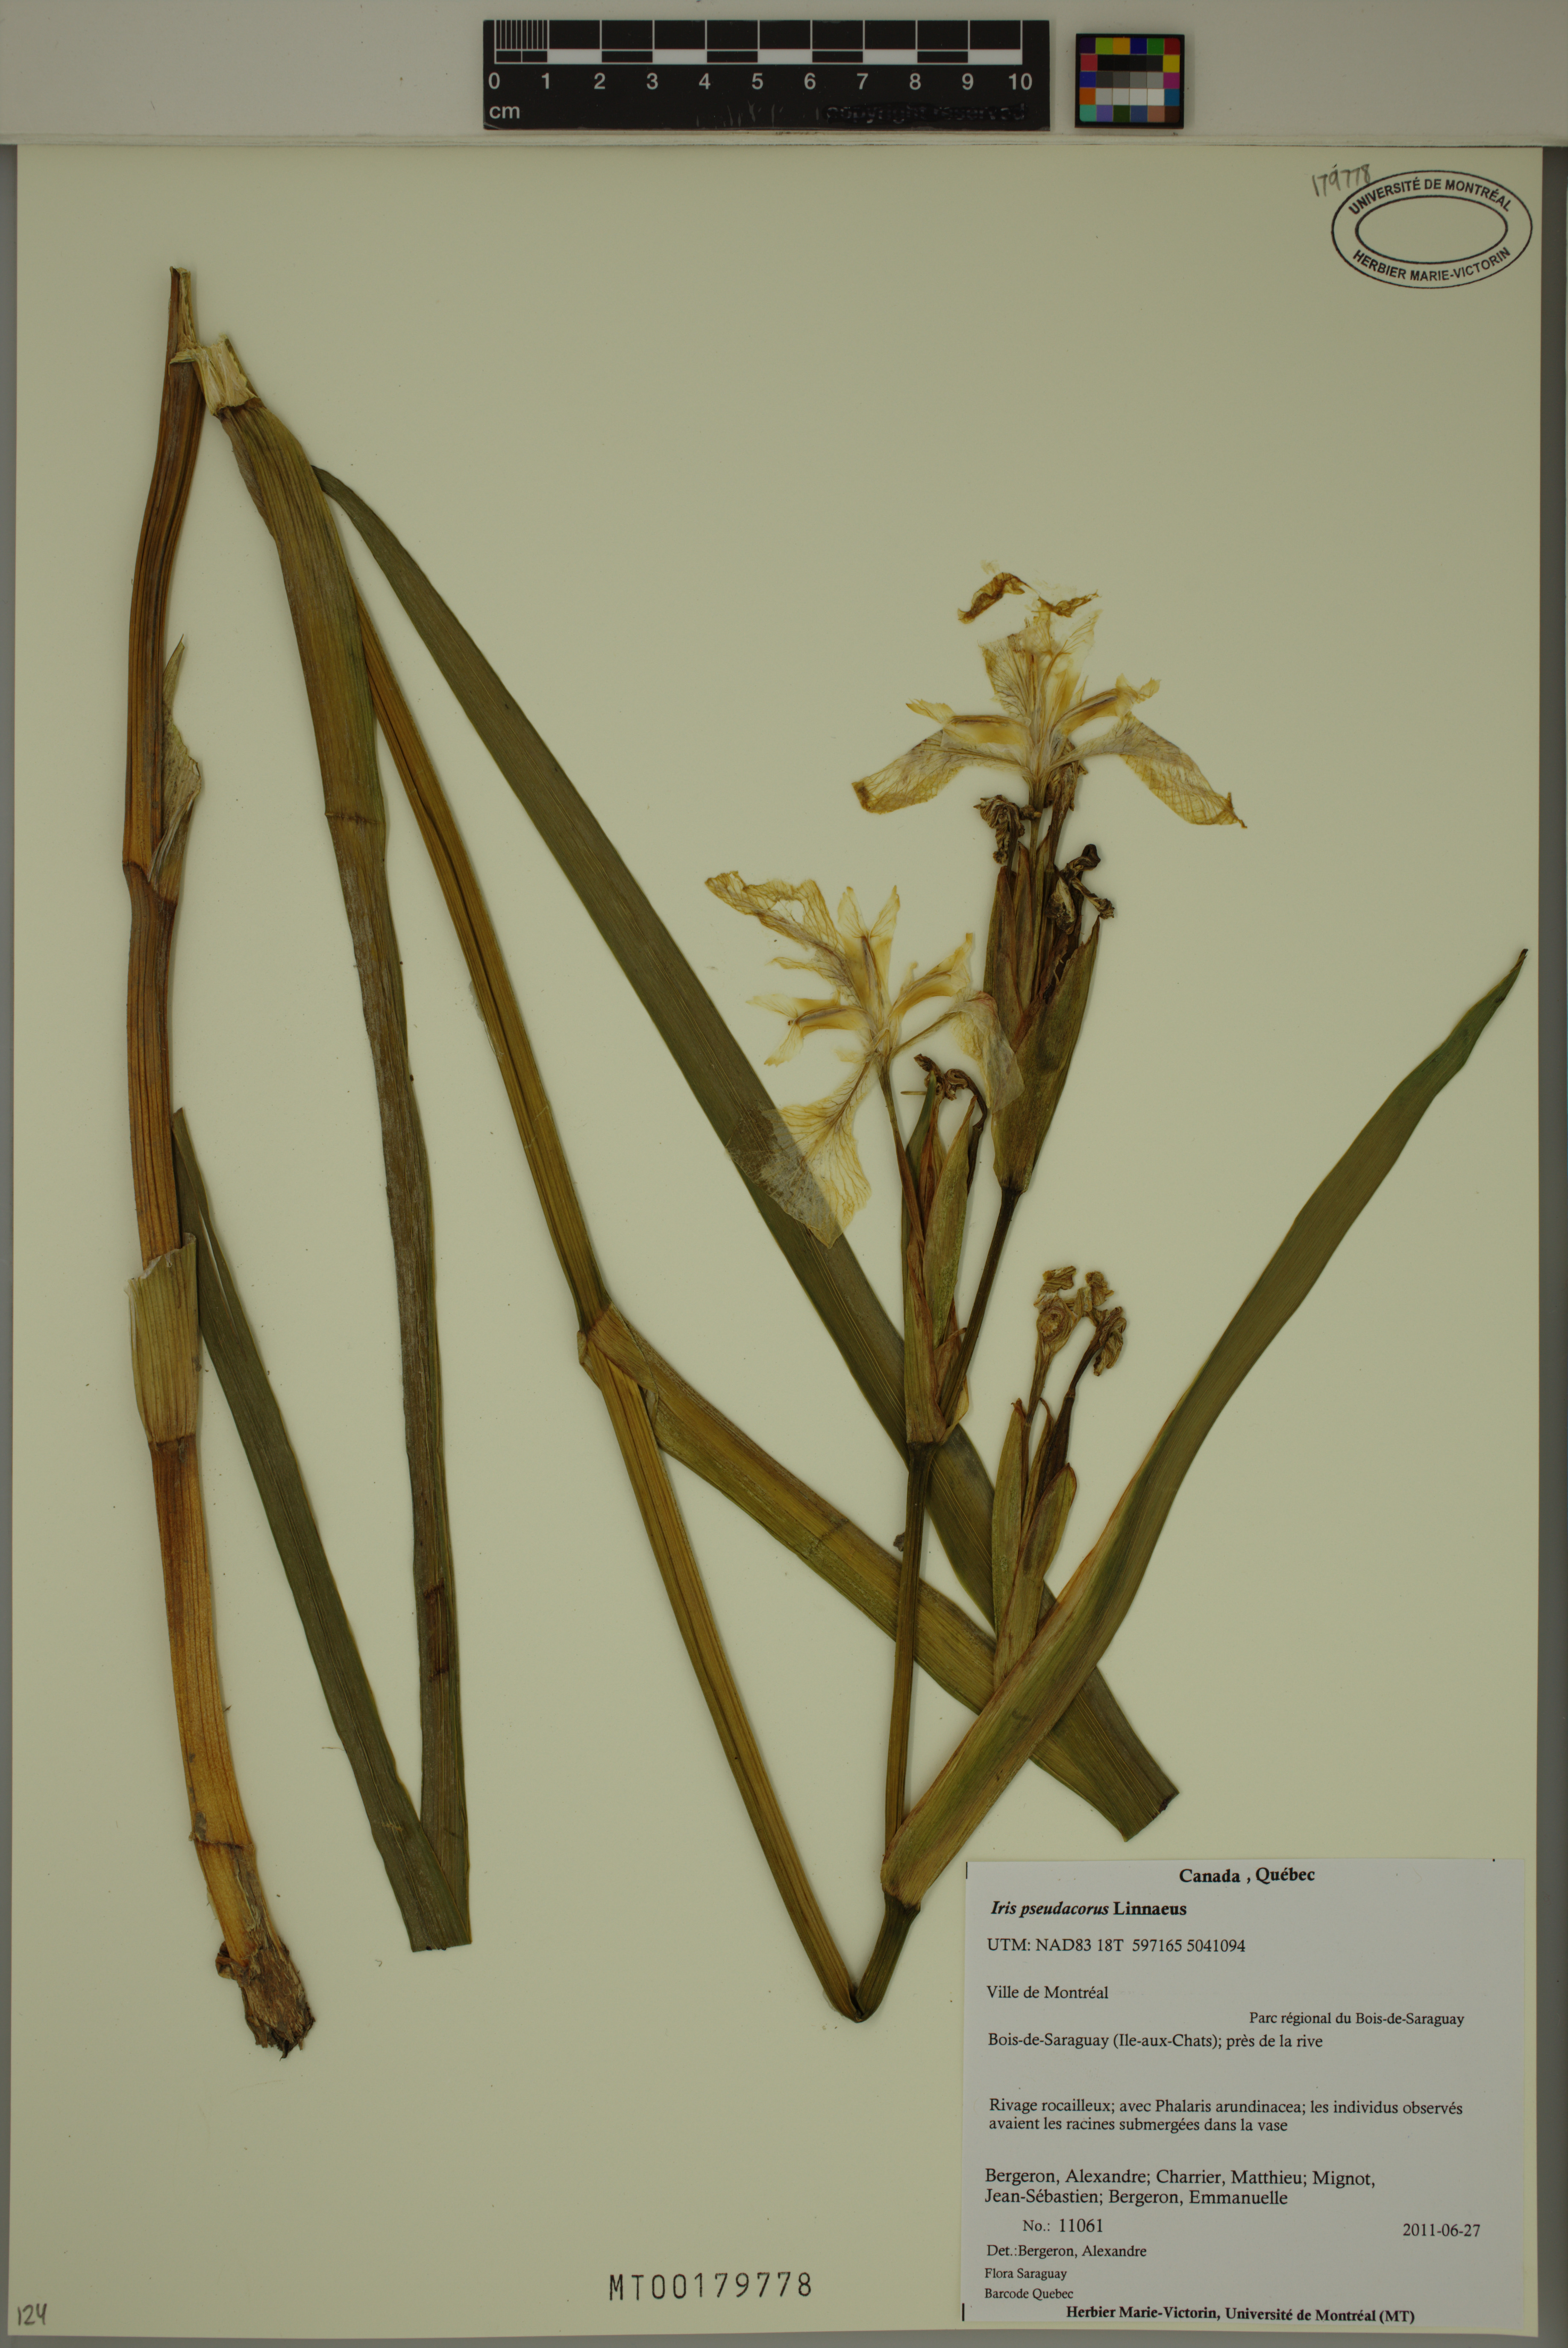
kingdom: Plantae
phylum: Tracheophyta
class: Liliopsida
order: Asparagales
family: Iridaceae
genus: Iris
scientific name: Iris pseudacorus
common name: Yellow flag
